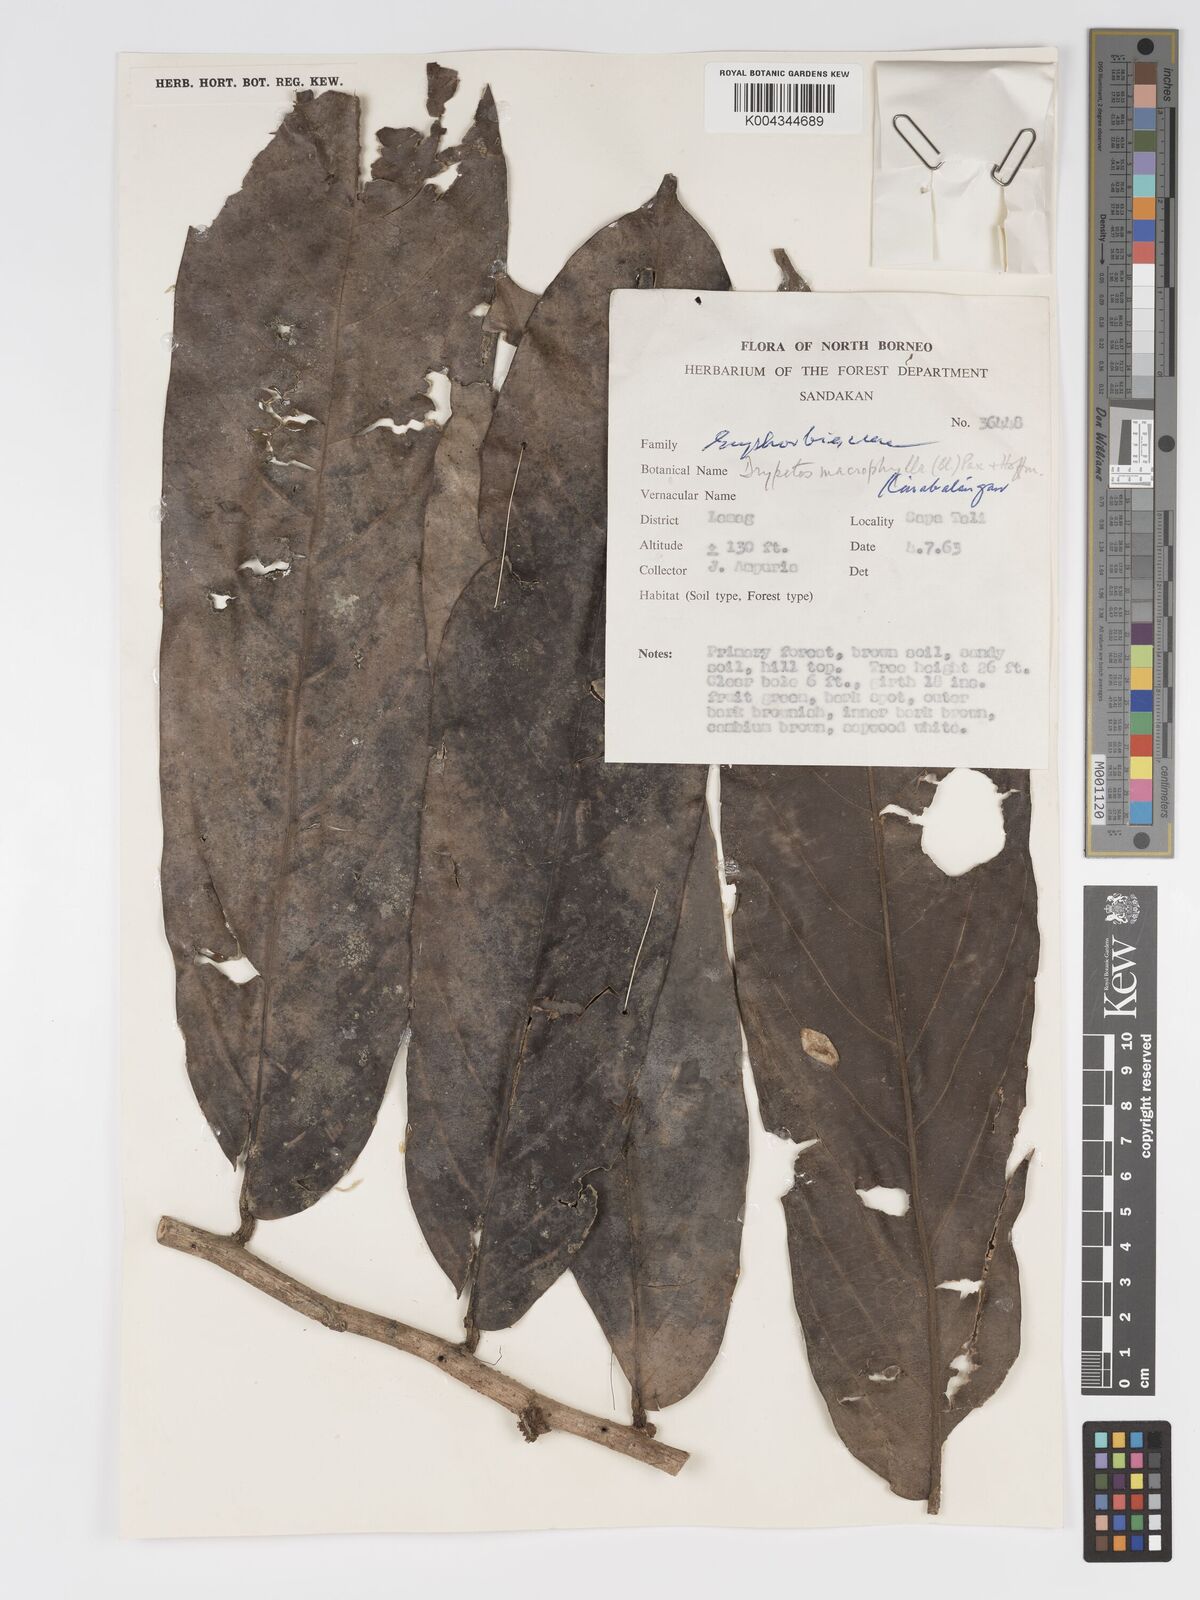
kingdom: Plantae
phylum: Tracheophyta
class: Magnoliopsida
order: Malpighiales
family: Putranjivaceae
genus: Drypetes
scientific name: Drypetes longifolia
